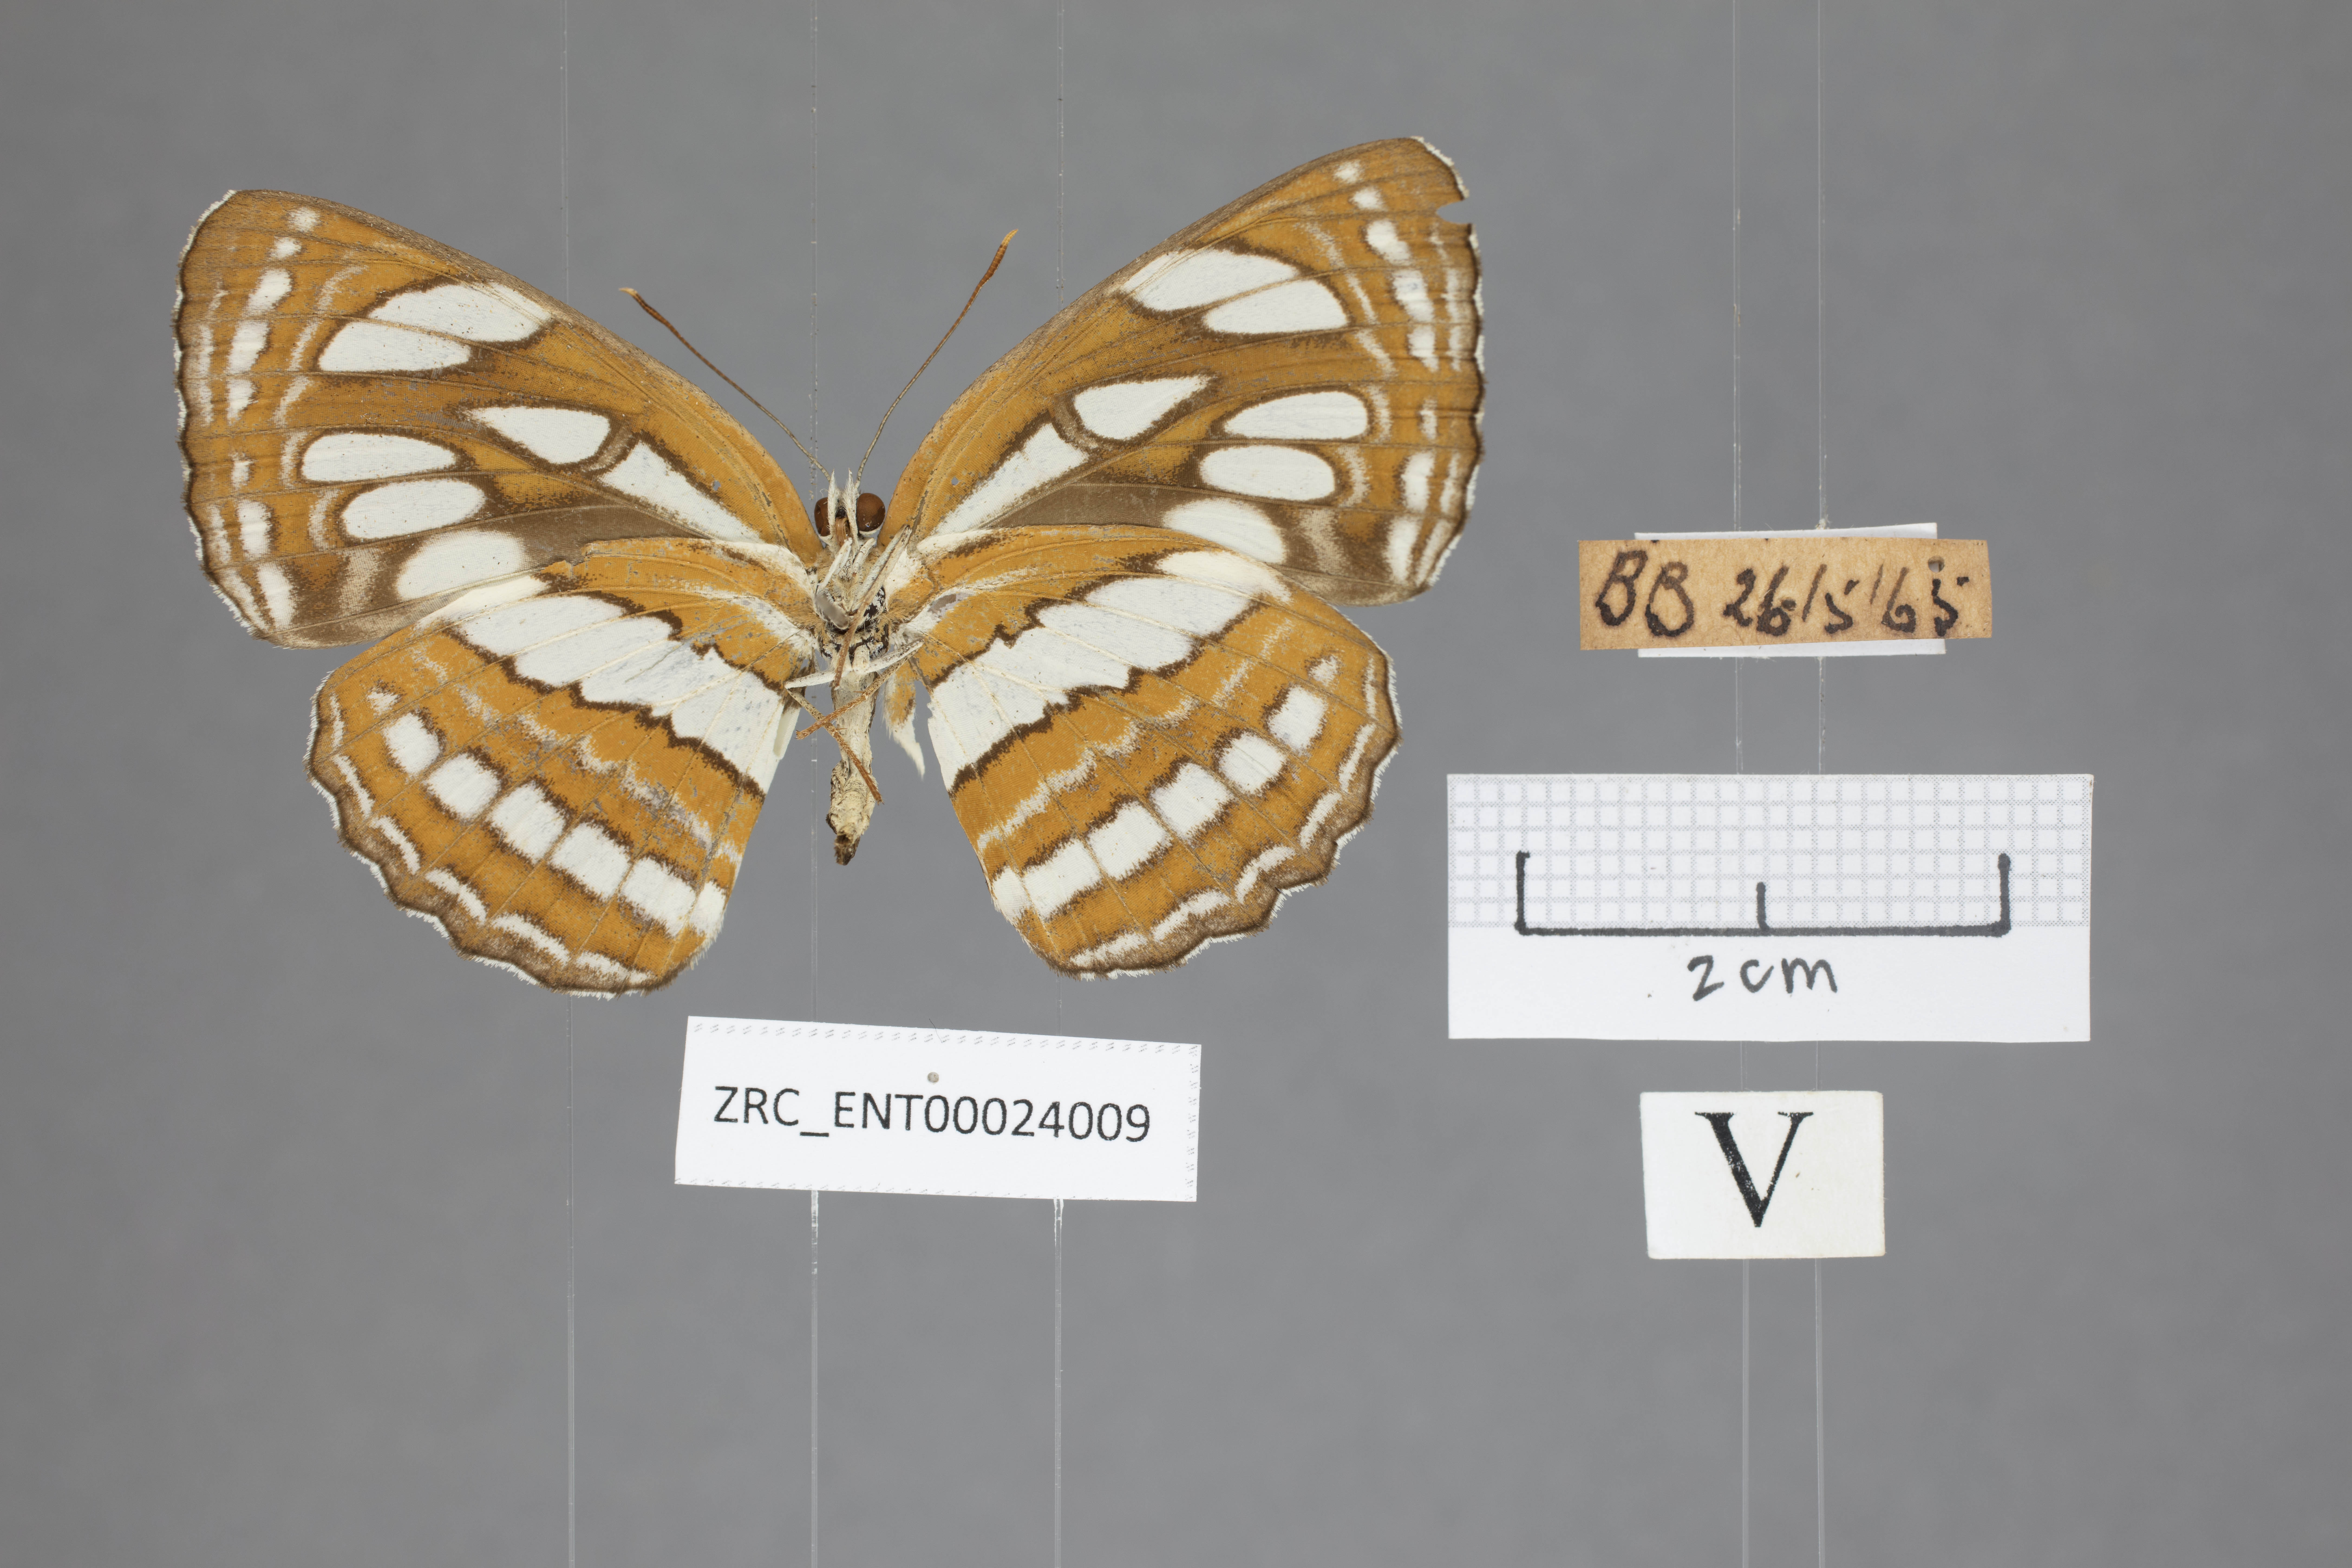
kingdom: Animalia
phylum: Arthropoda
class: Insecta
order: Lepidoptera
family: Nymphalidae
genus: Neptis
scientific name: Neptis hylas
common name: Common sailer
